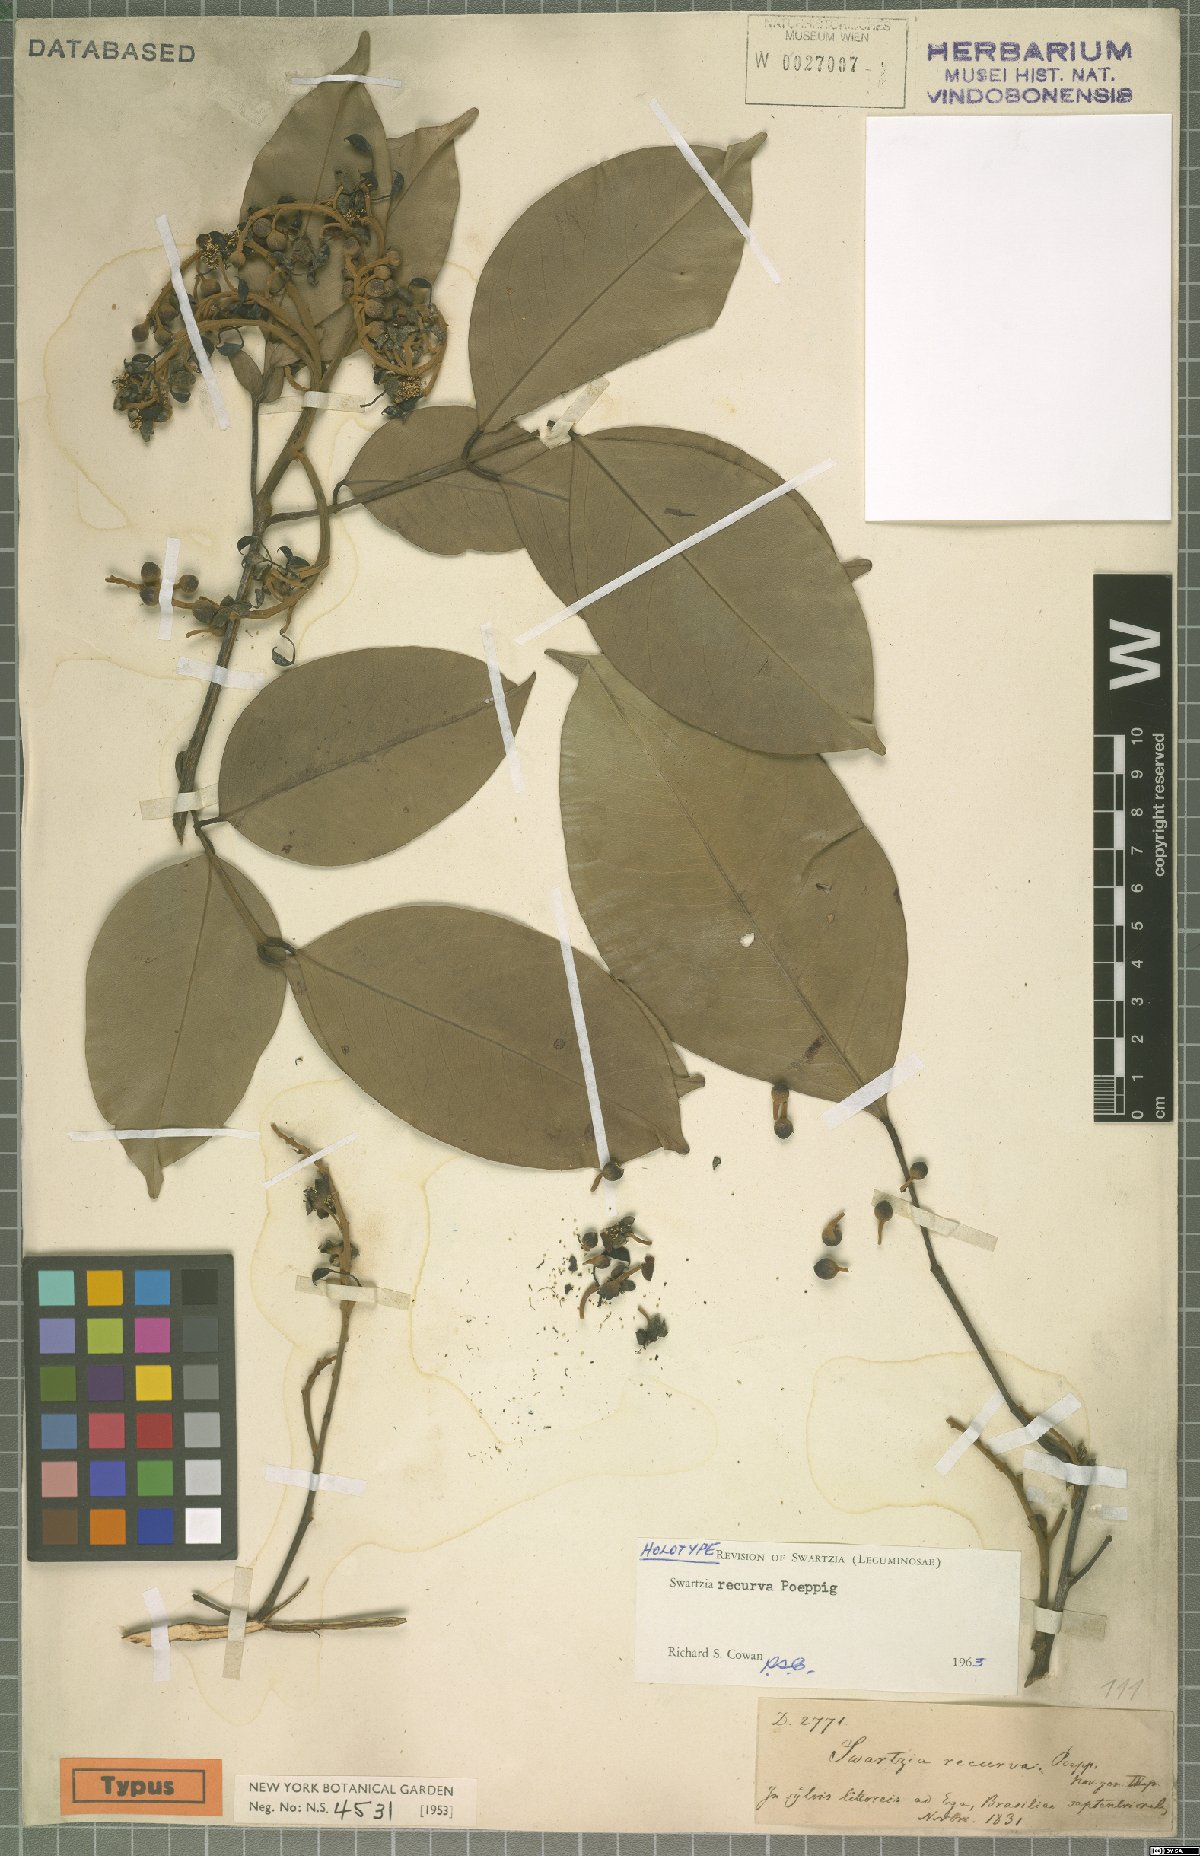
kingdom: Plantae
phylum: Tracheophyta
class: Magnoliopsida
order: Fabales
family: Fabaceae
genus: Swartzia
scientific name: Swartzia recurva
